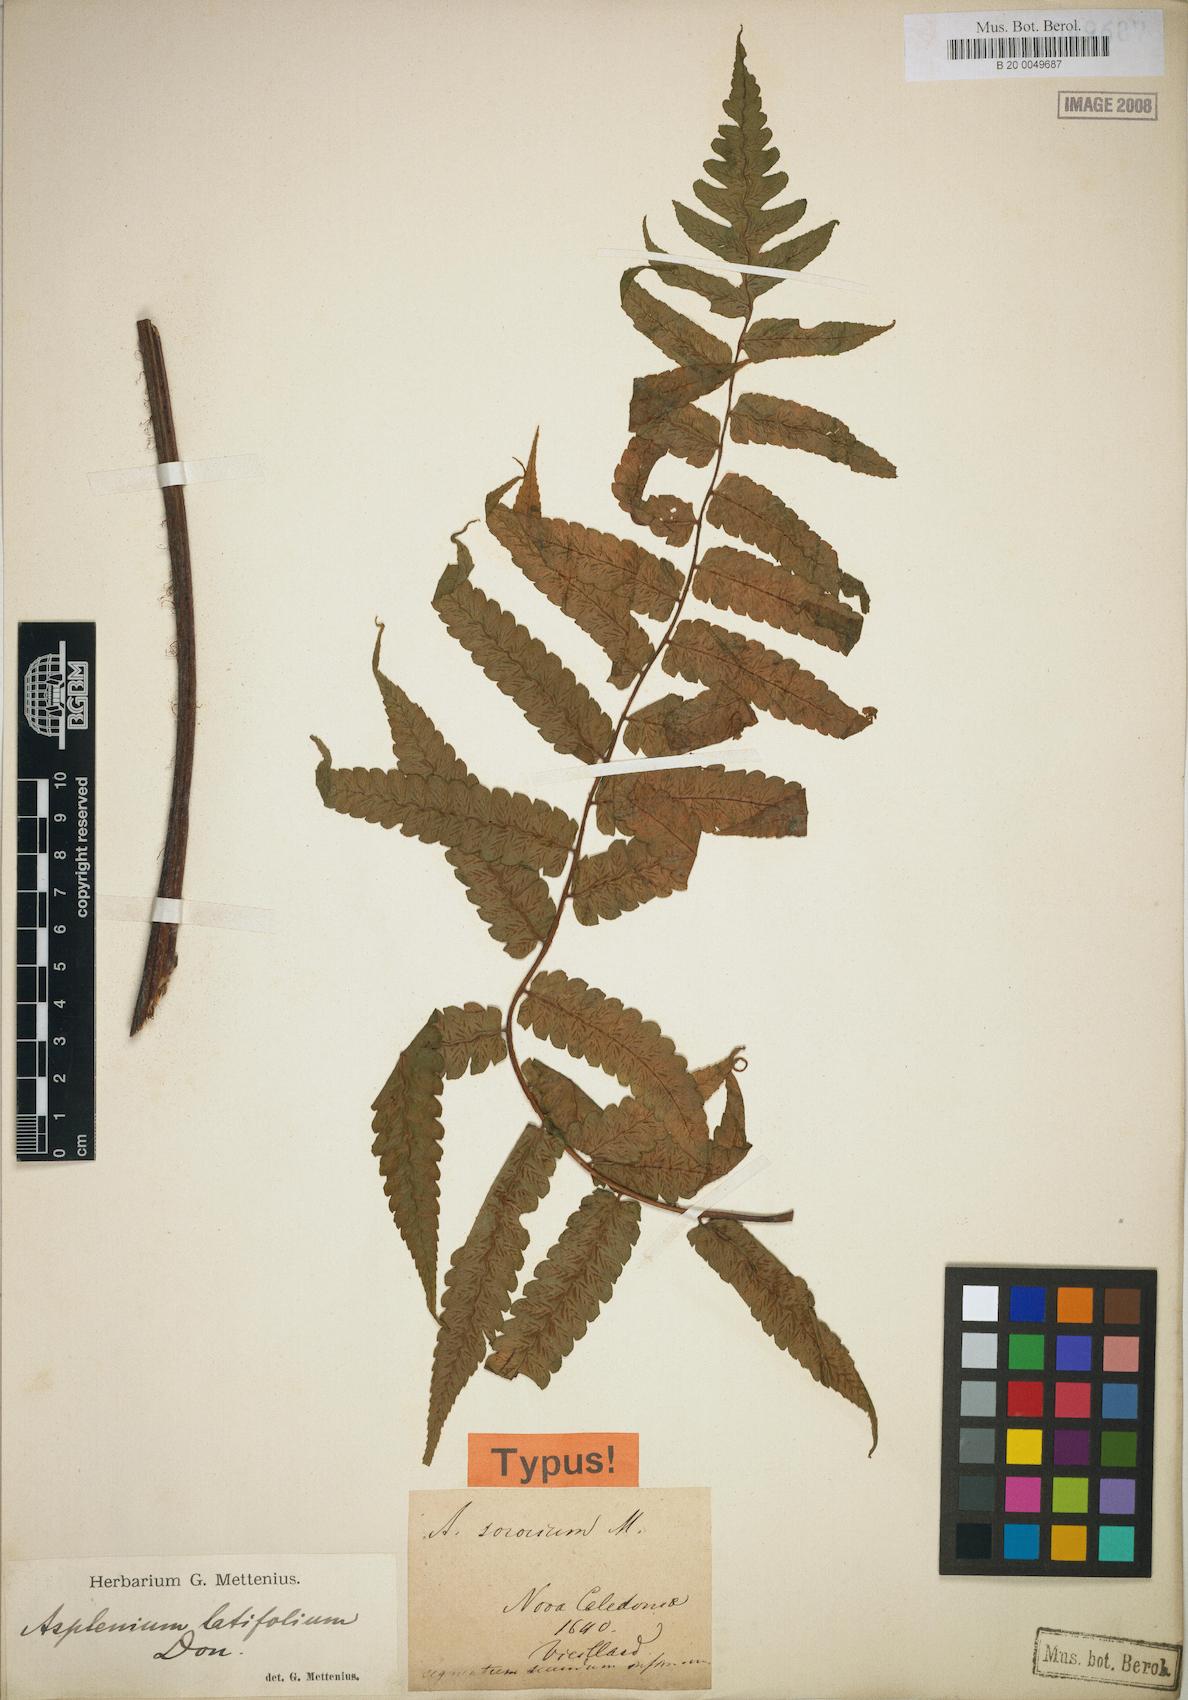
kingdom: Plantae
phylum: Tracheophyta
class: Polypodiopsida
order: Polypodiales
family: Athyriaceae
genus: Diplazium
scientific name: Diplazium sororium
